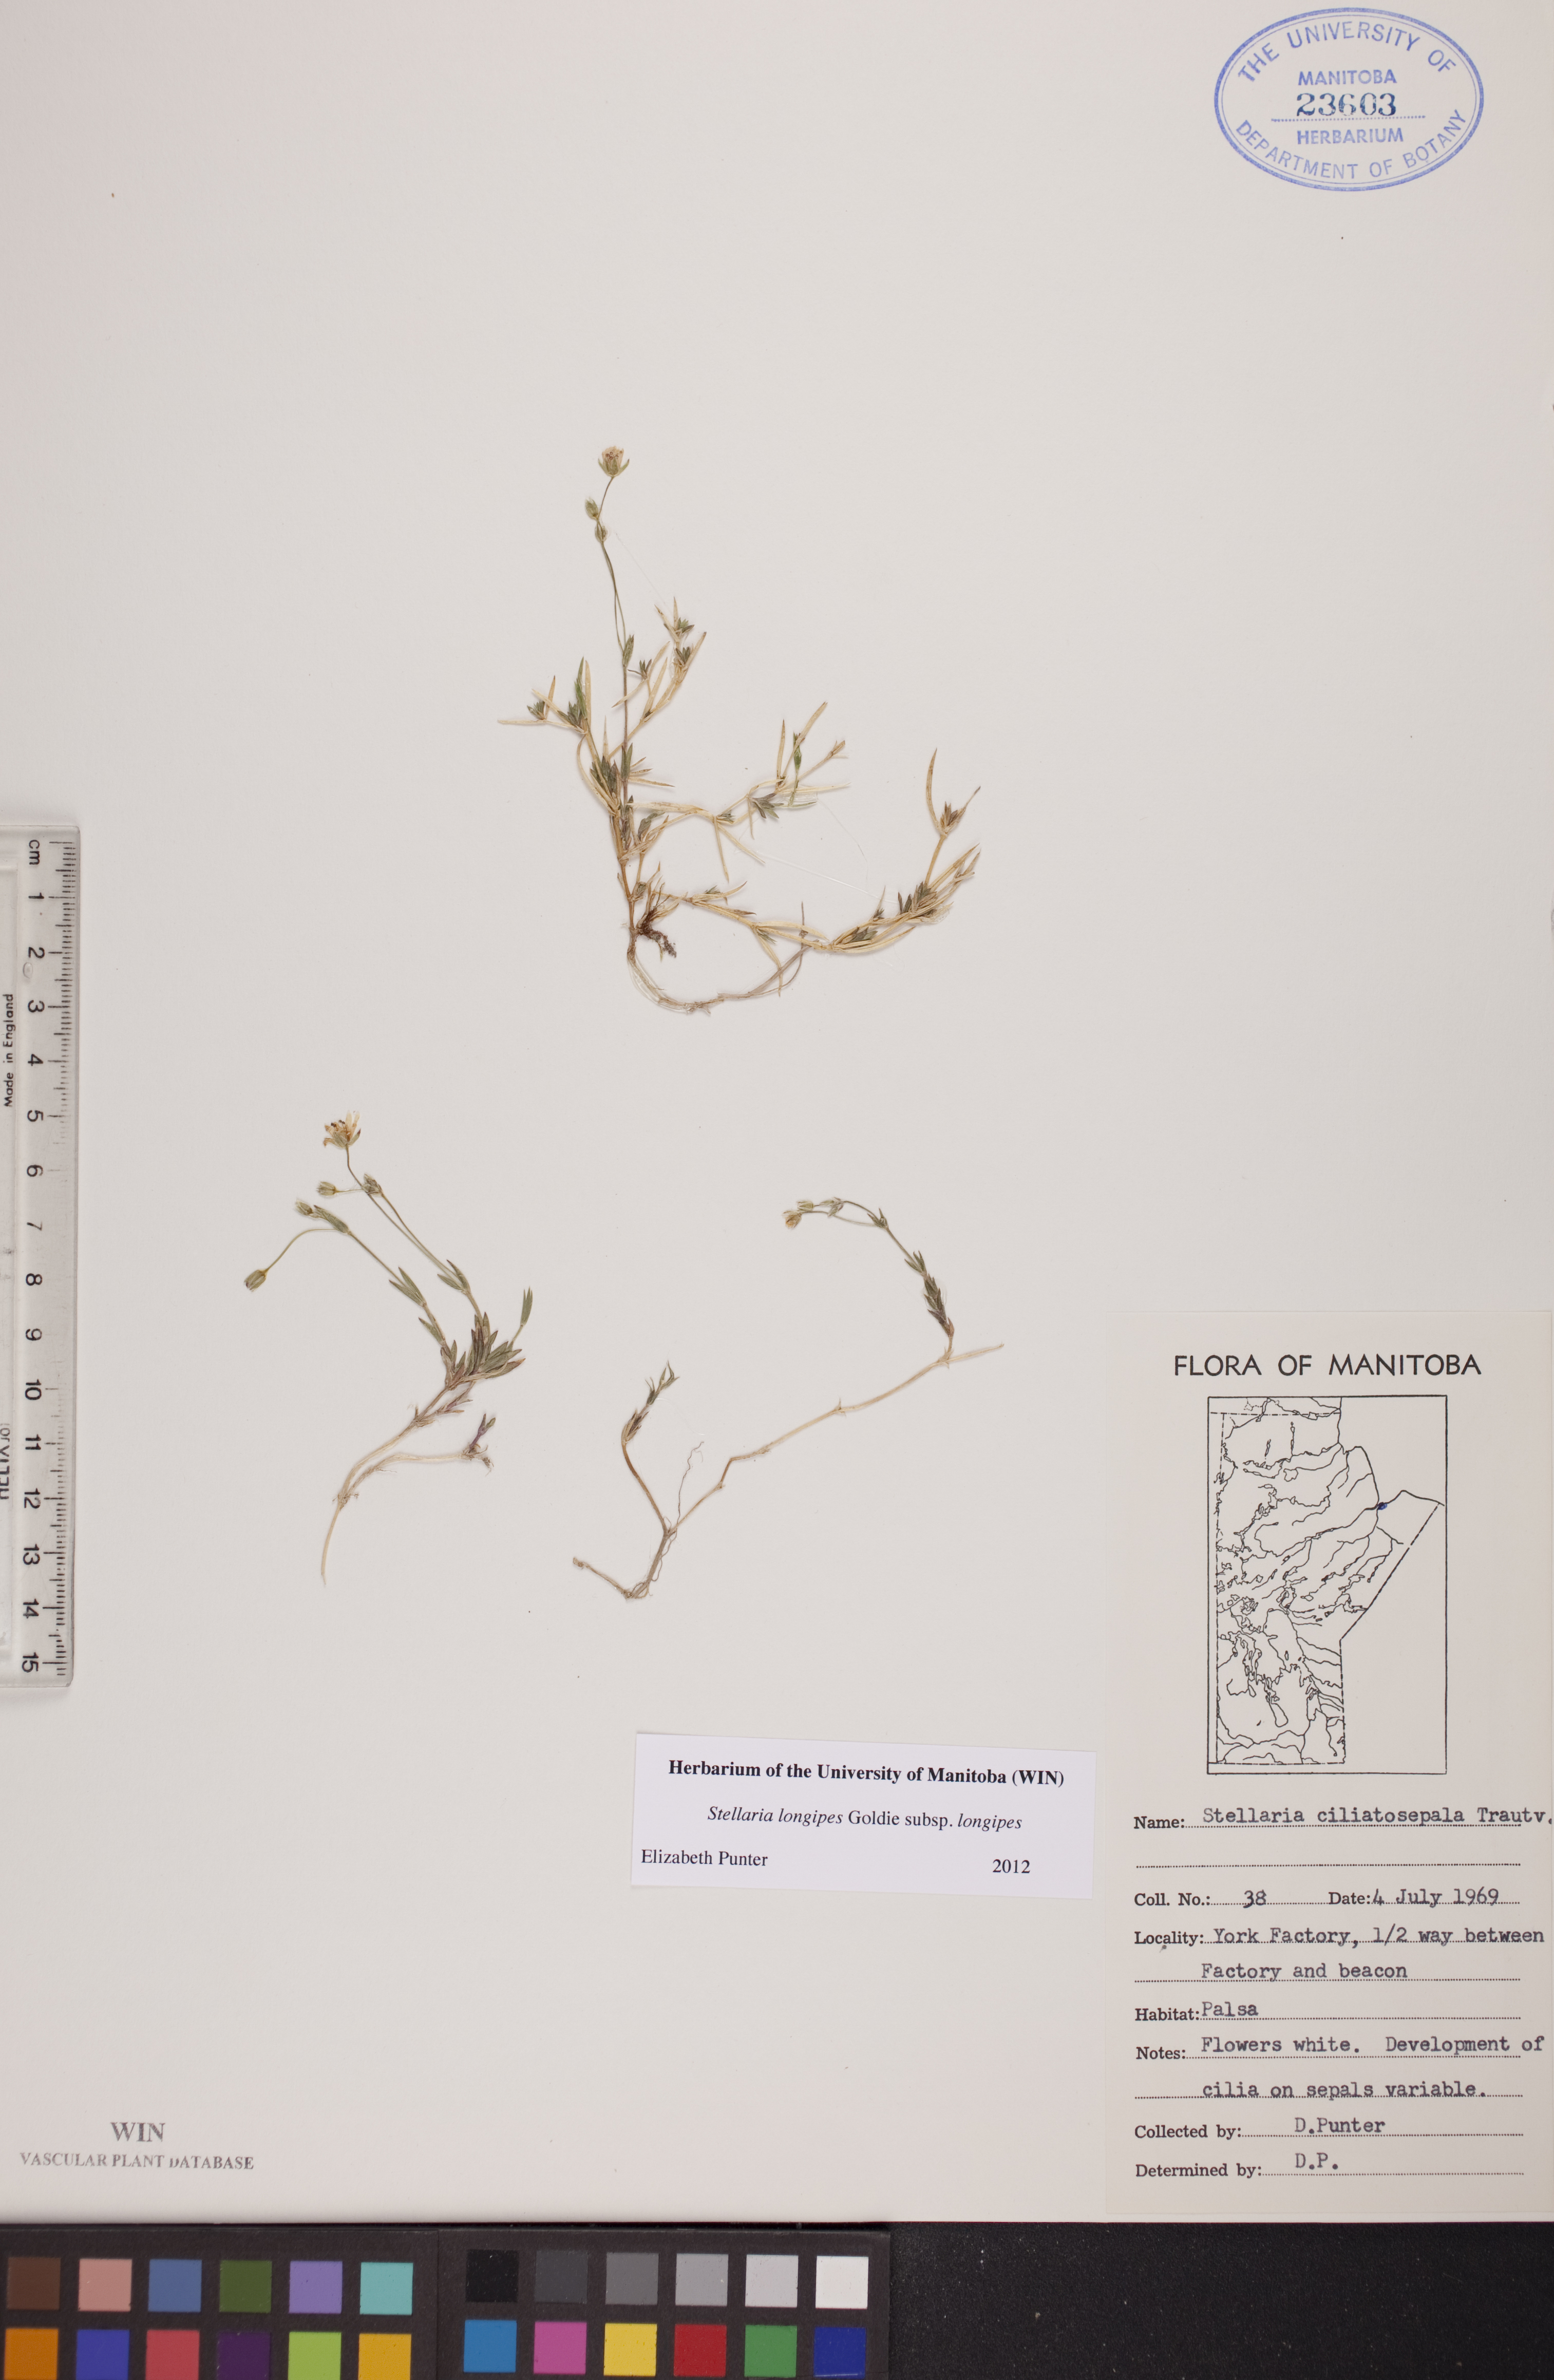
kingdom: Plantae
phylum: Tracheophyta
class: Magnoliopsida
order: Caryophyllales
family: Caryophyllaceae
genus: Stellaria
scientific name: Stellaria longipes
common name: Goldie's starwort
